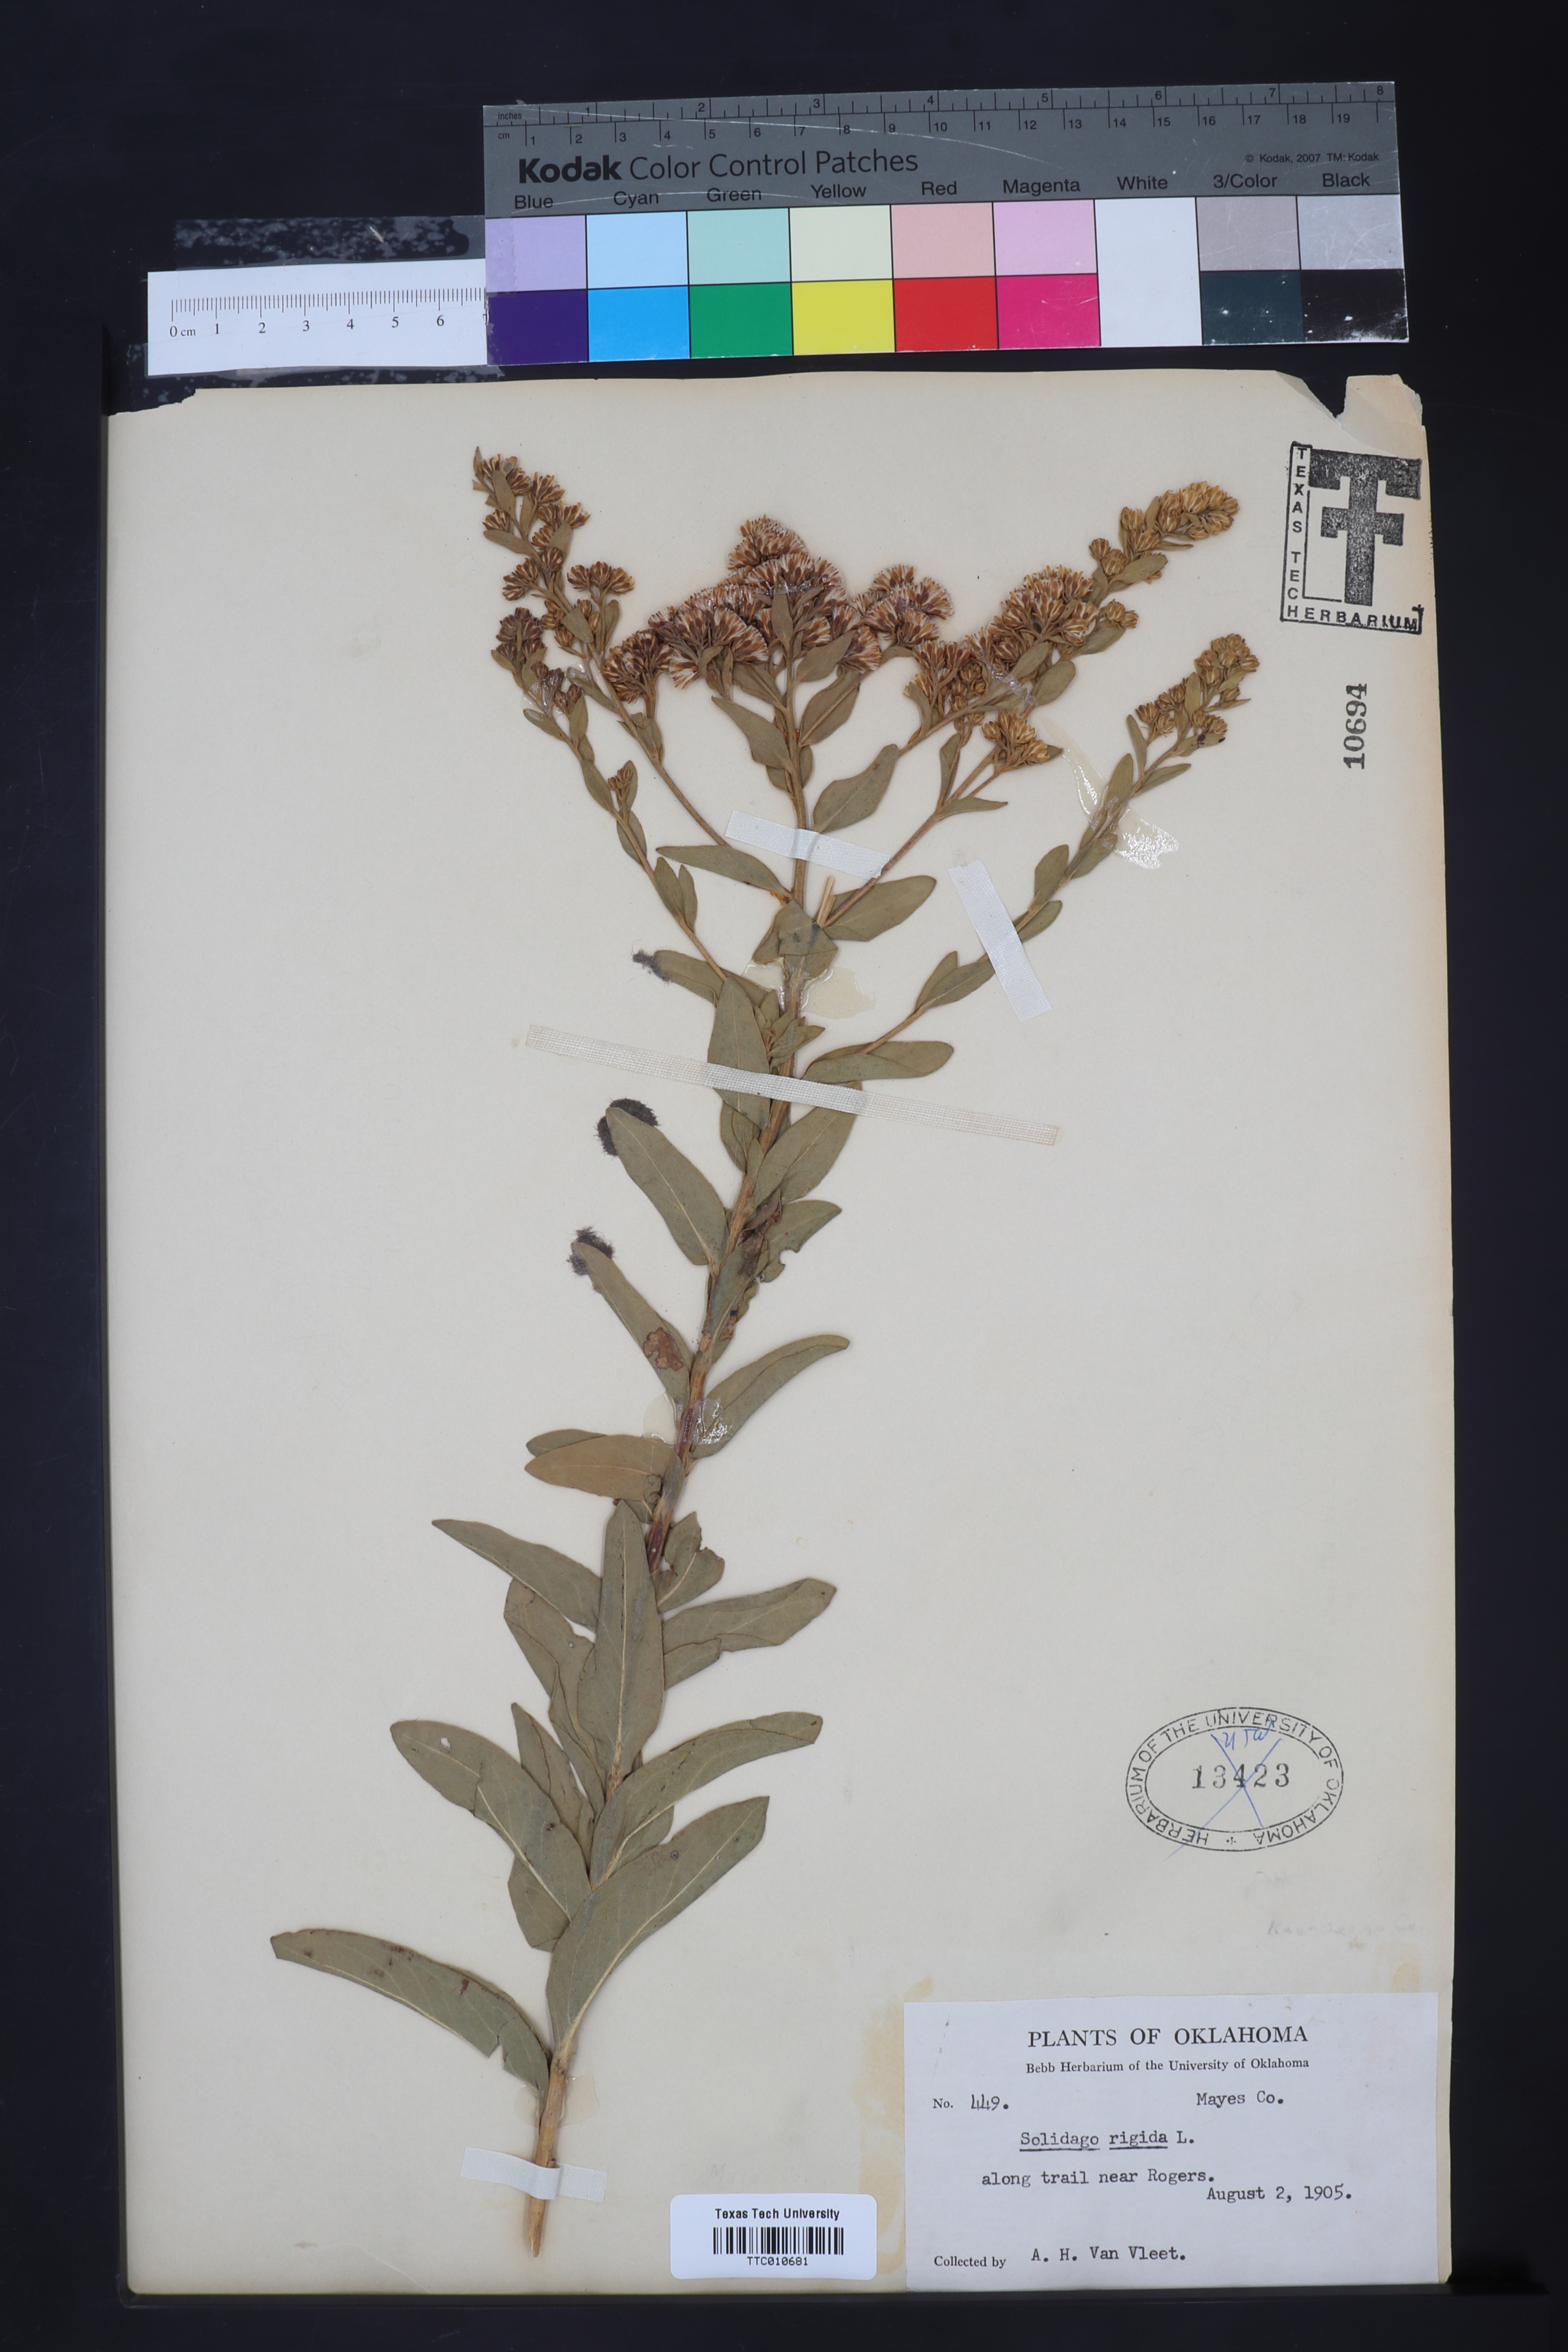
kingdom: Plantae
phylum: Tracheophyta
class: Magnoliopsida
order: Asterales
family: Asteraceae
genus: Solidago
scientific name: Solidago rigida
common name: Rigid goldenrod
